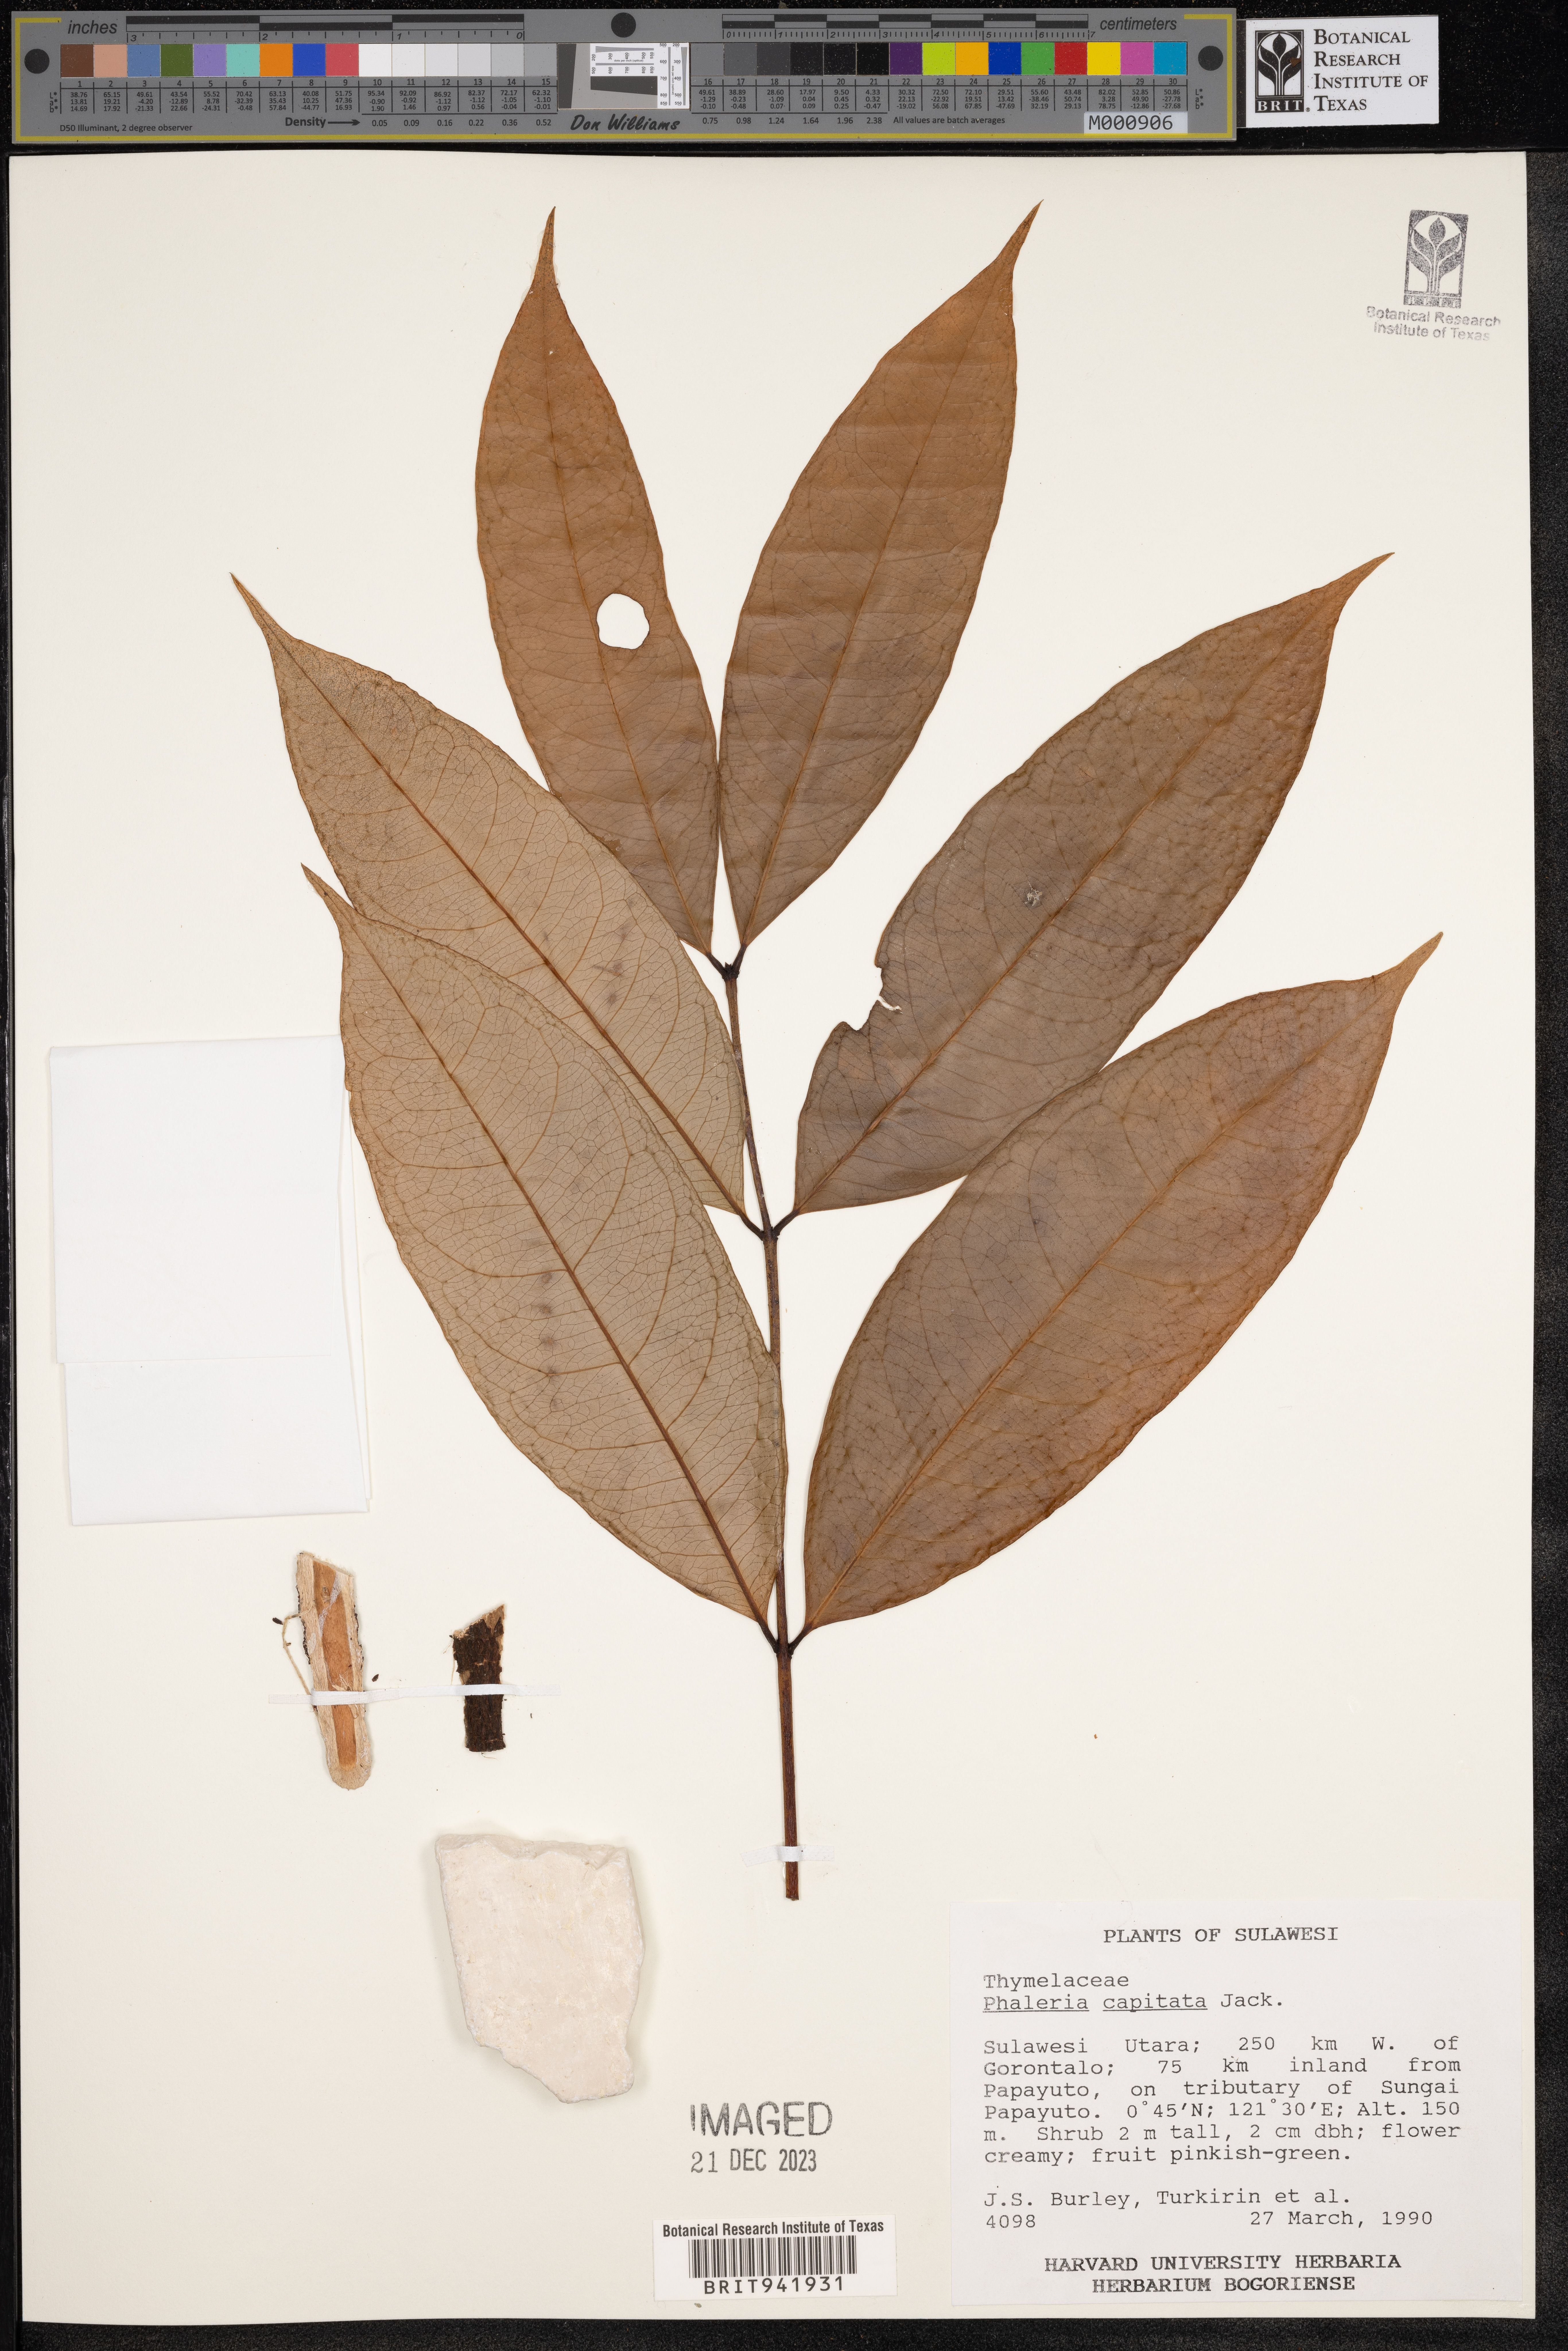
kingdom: Plantae
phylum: Tracheophyta
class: Magnoliopsida
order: Malvales
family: Thymelaeaceae
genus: Phaleria
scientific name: Phaleria
